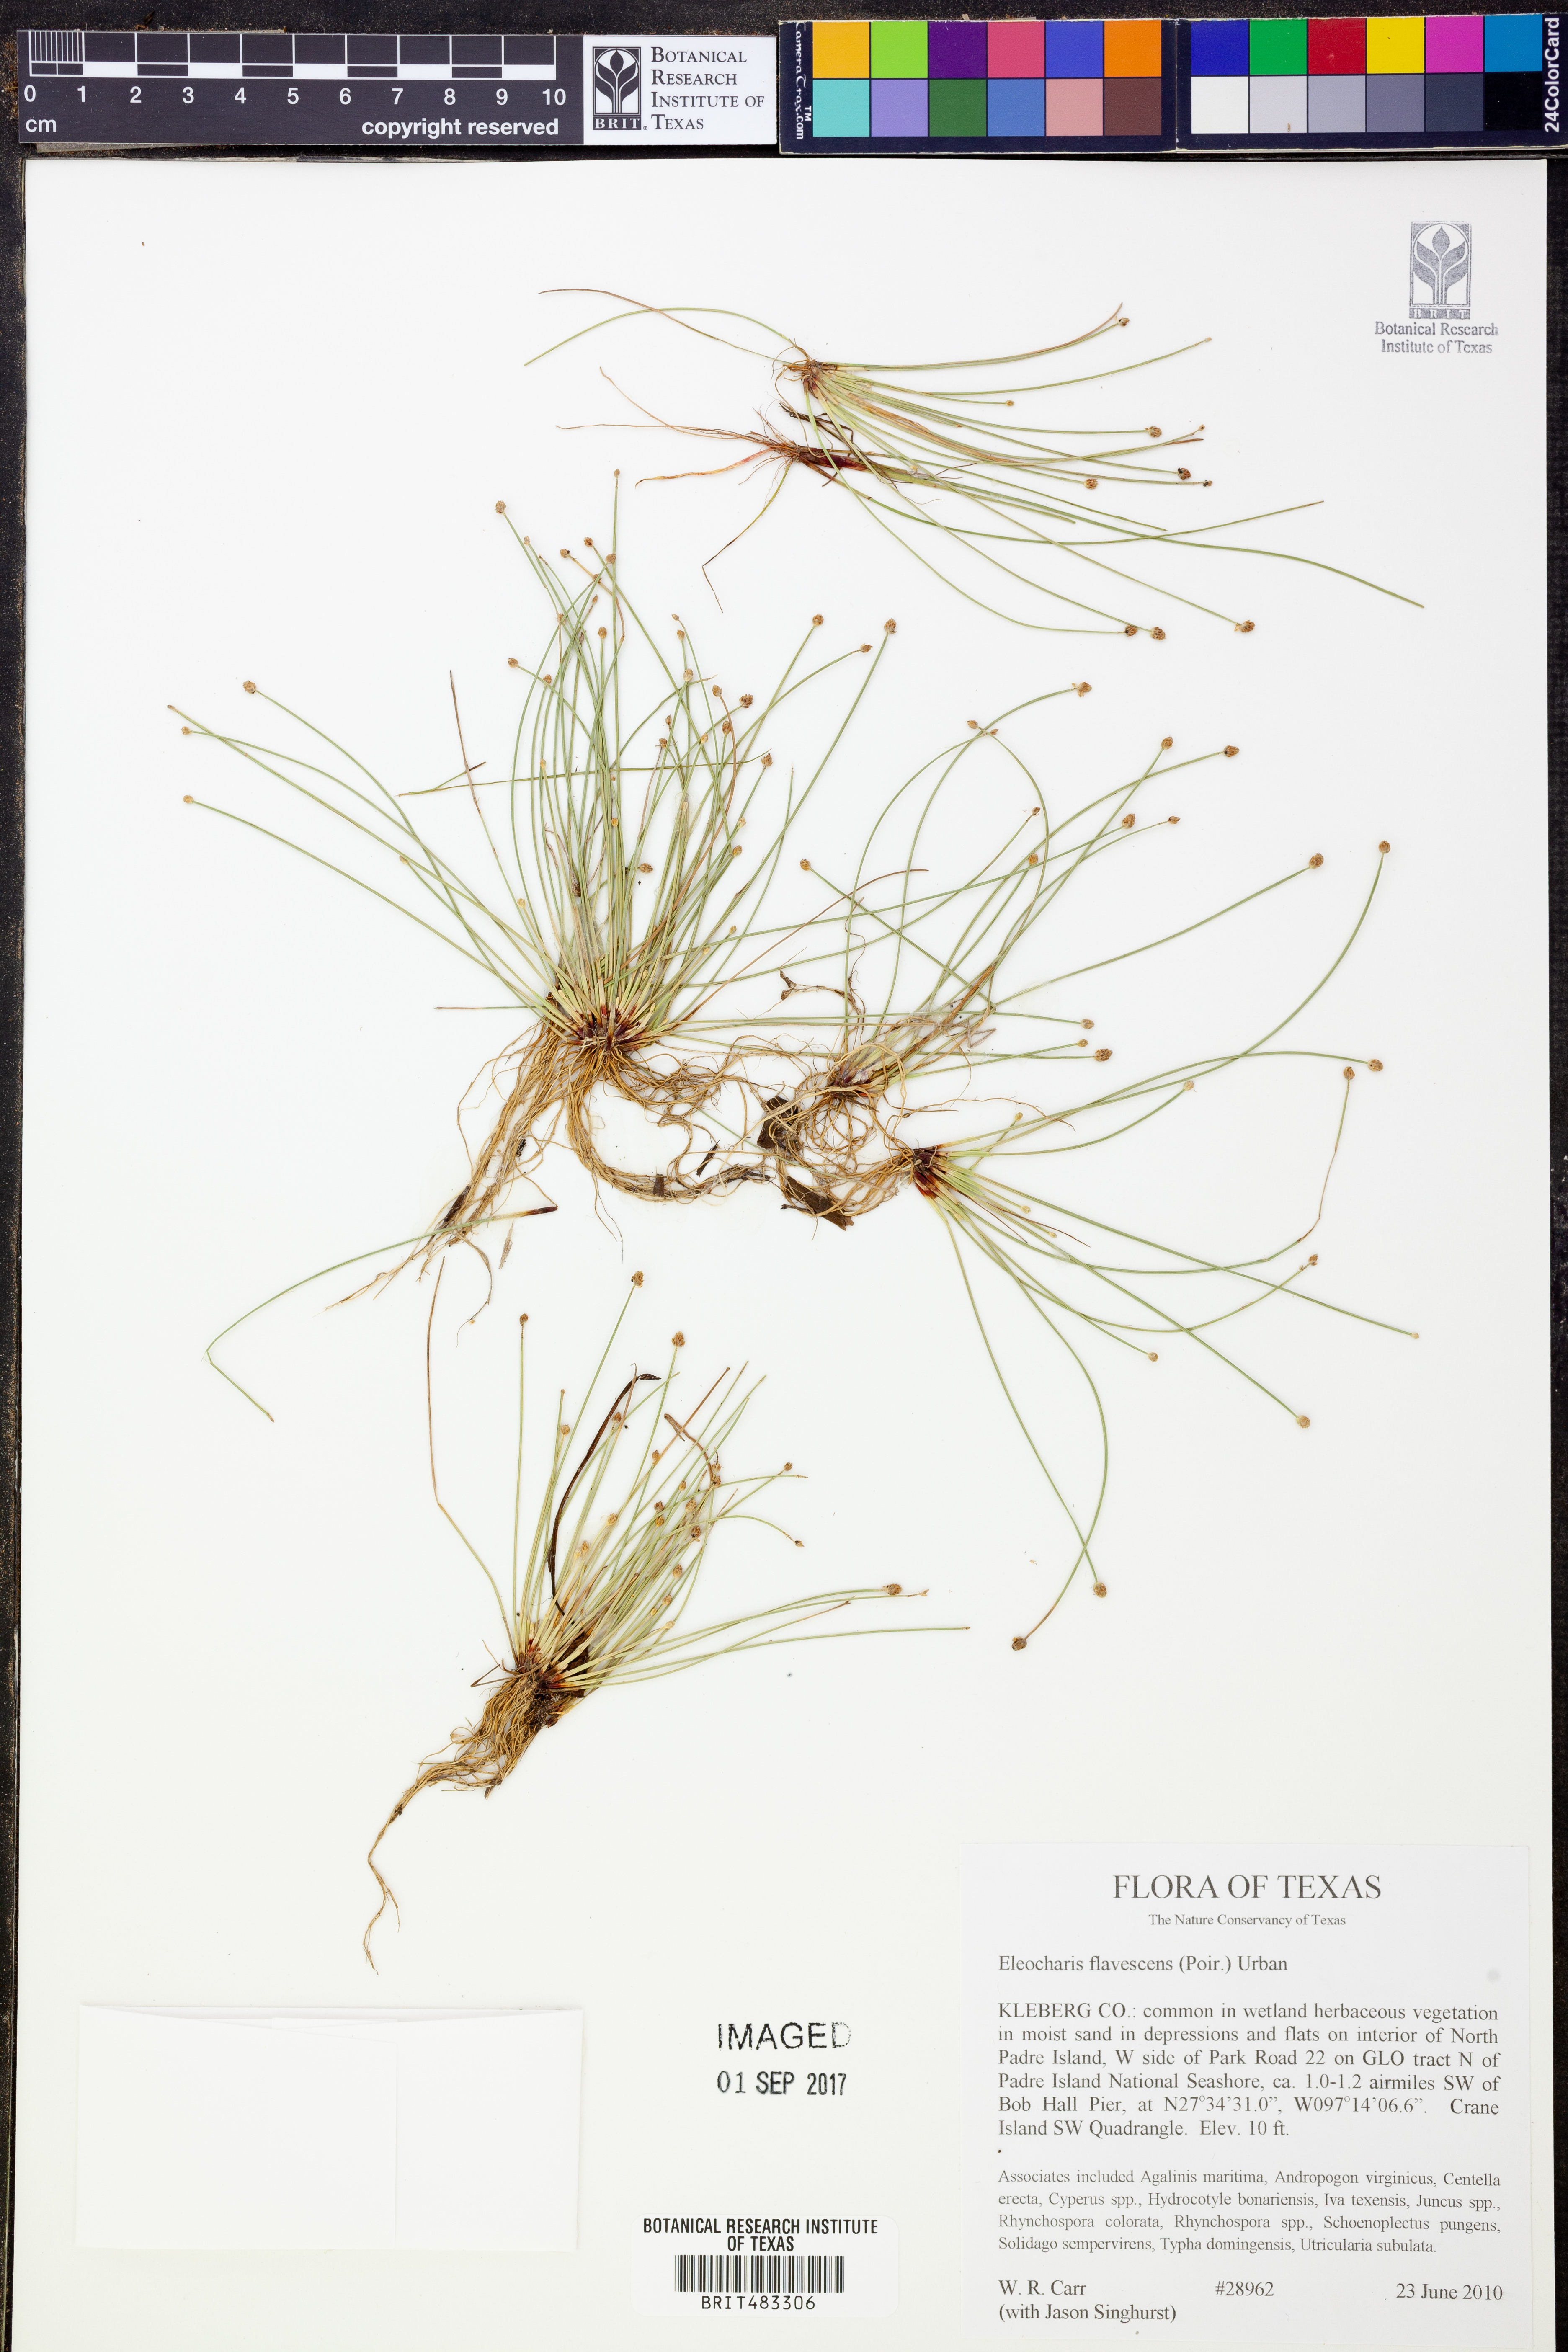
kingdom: Plantae
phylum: Tracheophyta
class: Liliopsida
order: Poales
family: Cyperaceae
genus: Eleocharis
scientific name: Eleocharis flavescens
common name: Yellow spikerush
